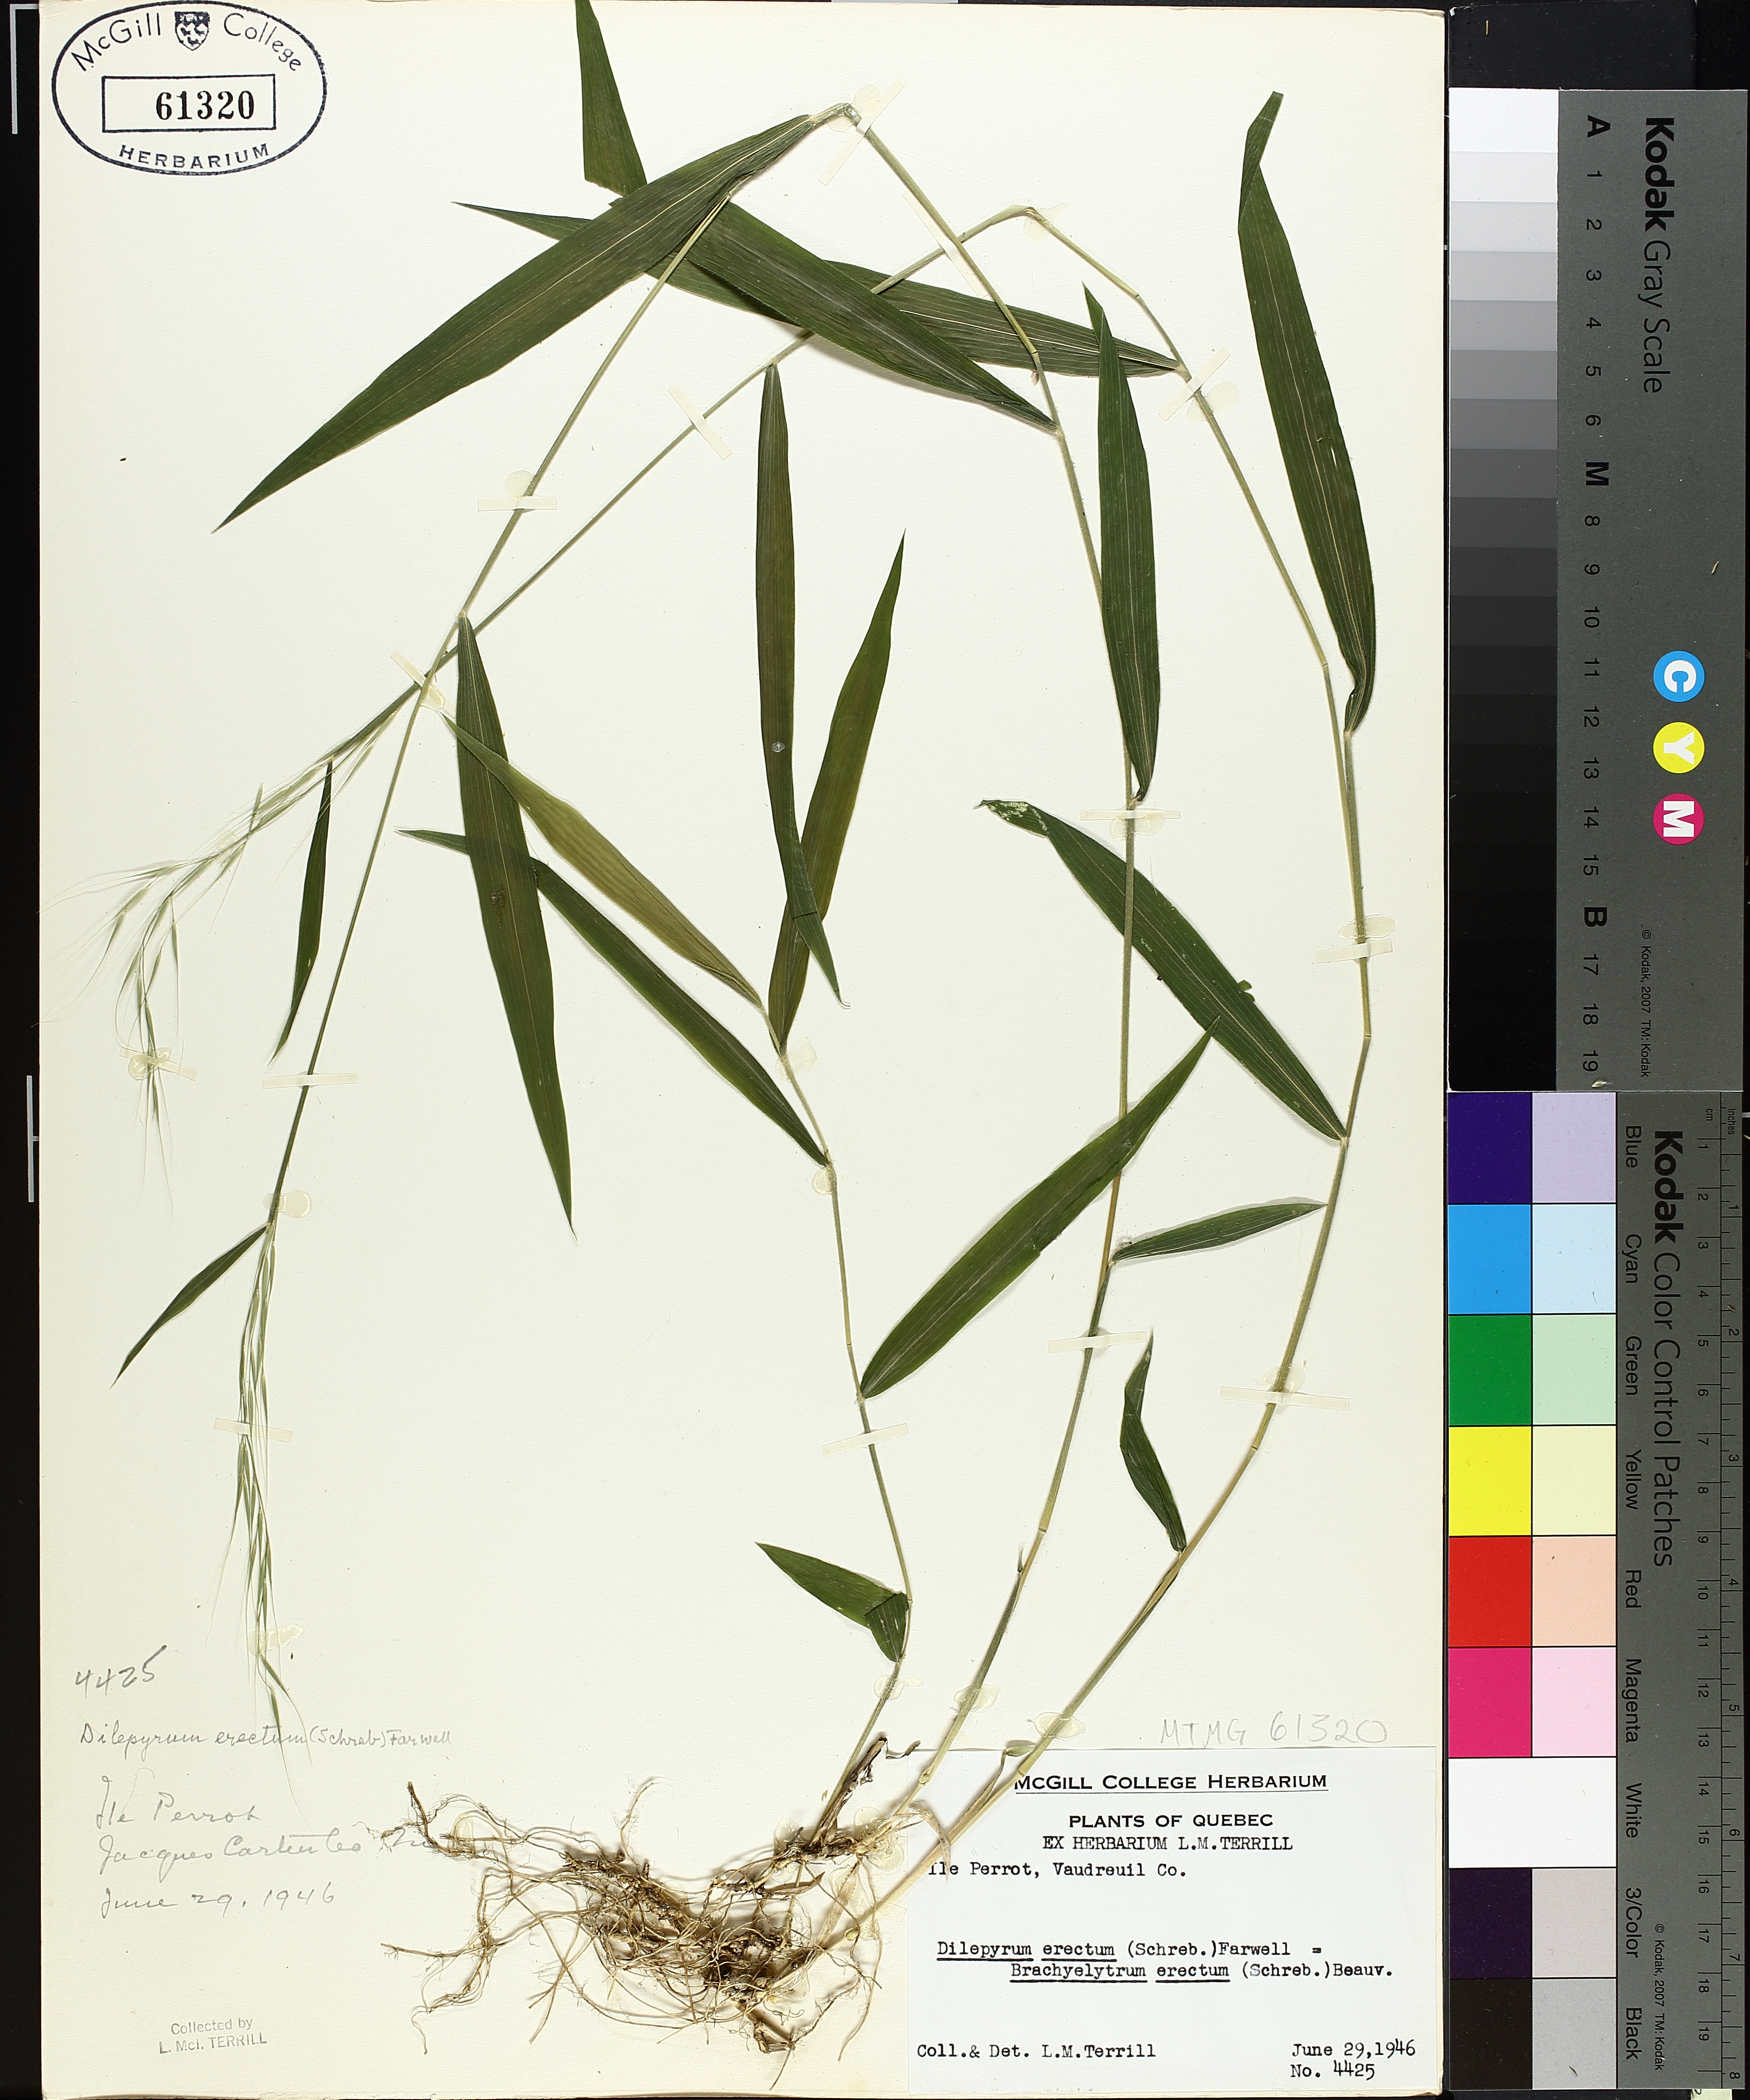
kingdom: Plantae
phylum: Tracheophyta
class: Liliopsida
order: Poales
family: Poaceae
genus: Brachyelytrum
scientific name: Brachyelytrum erectum
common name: Bearded shorthusk
